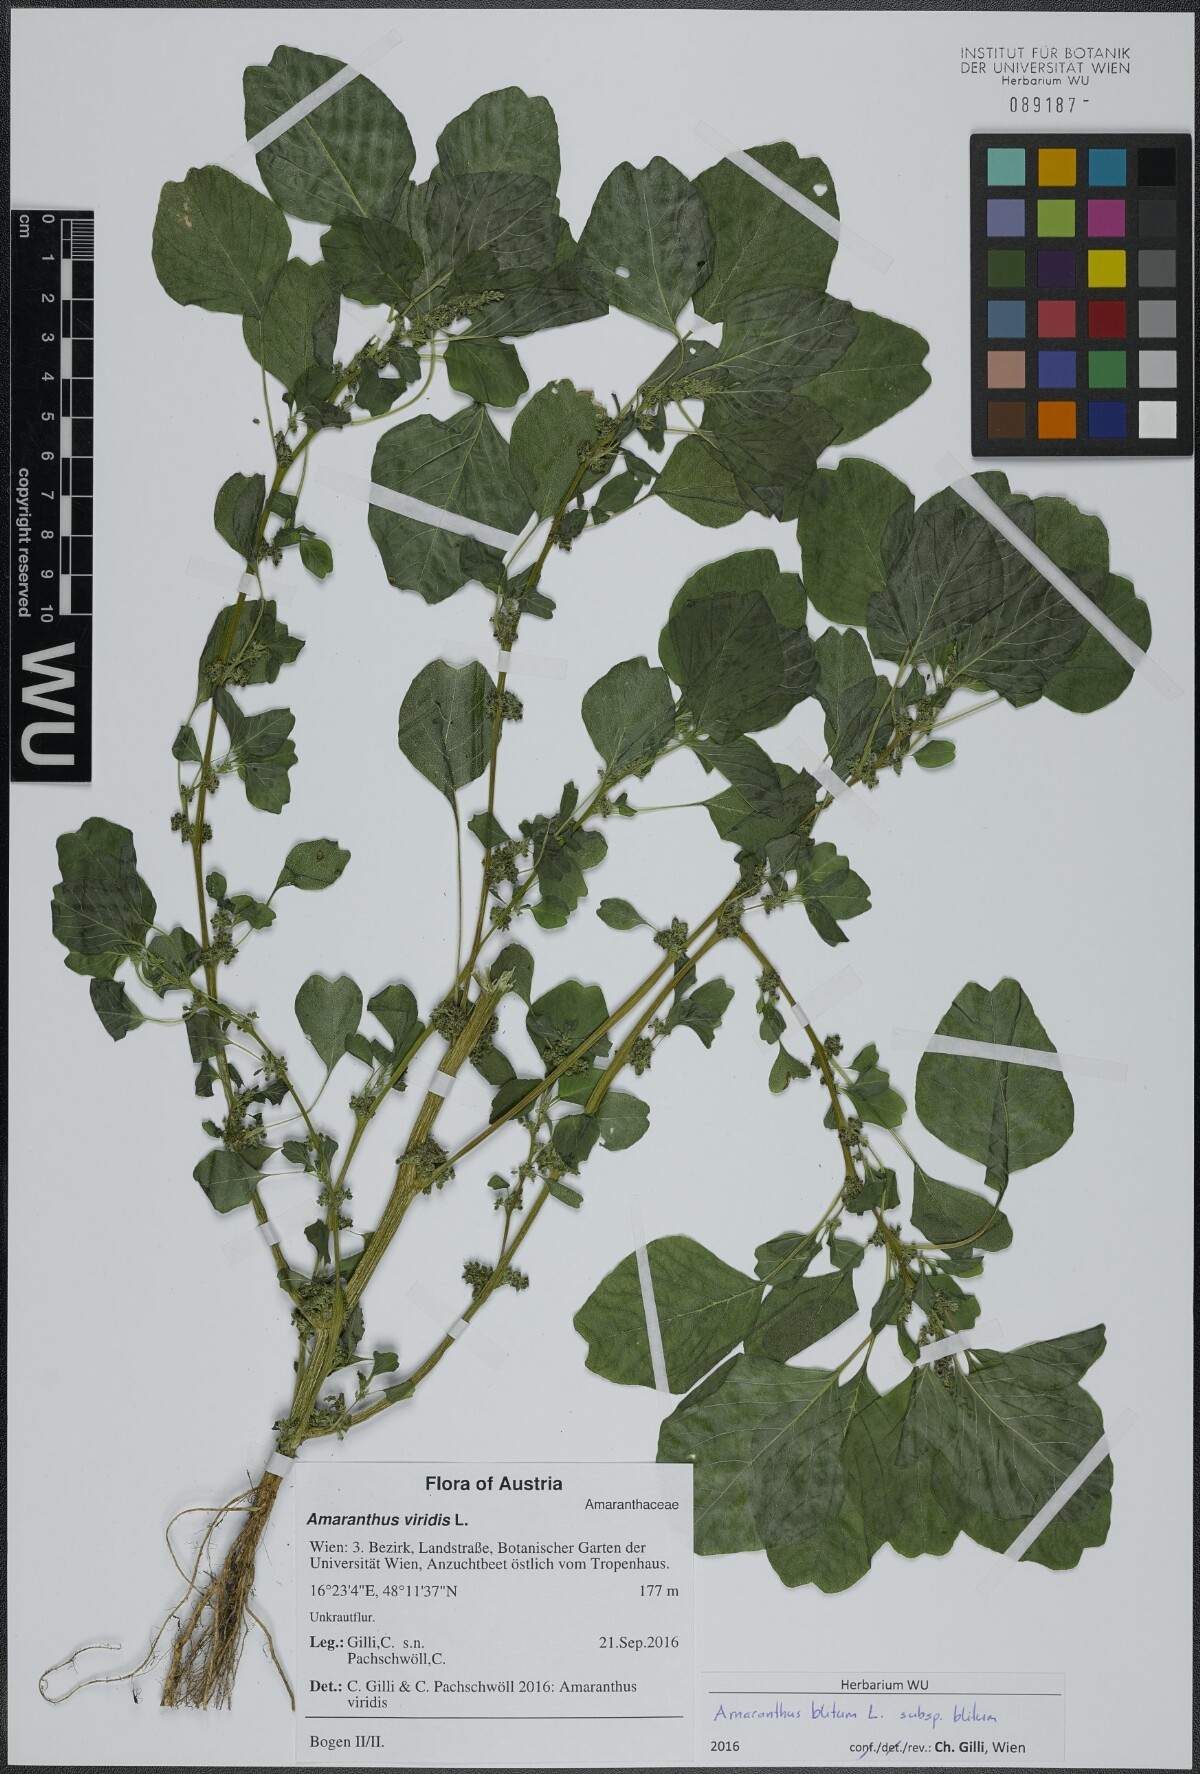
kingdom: Plantae
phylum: Tracheophyta
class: Magnoliopsida
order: Caryophyllales
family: Amaranthaceae
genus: Amaranthus
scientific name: Amaranthus blitum
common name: Purple amaranth
